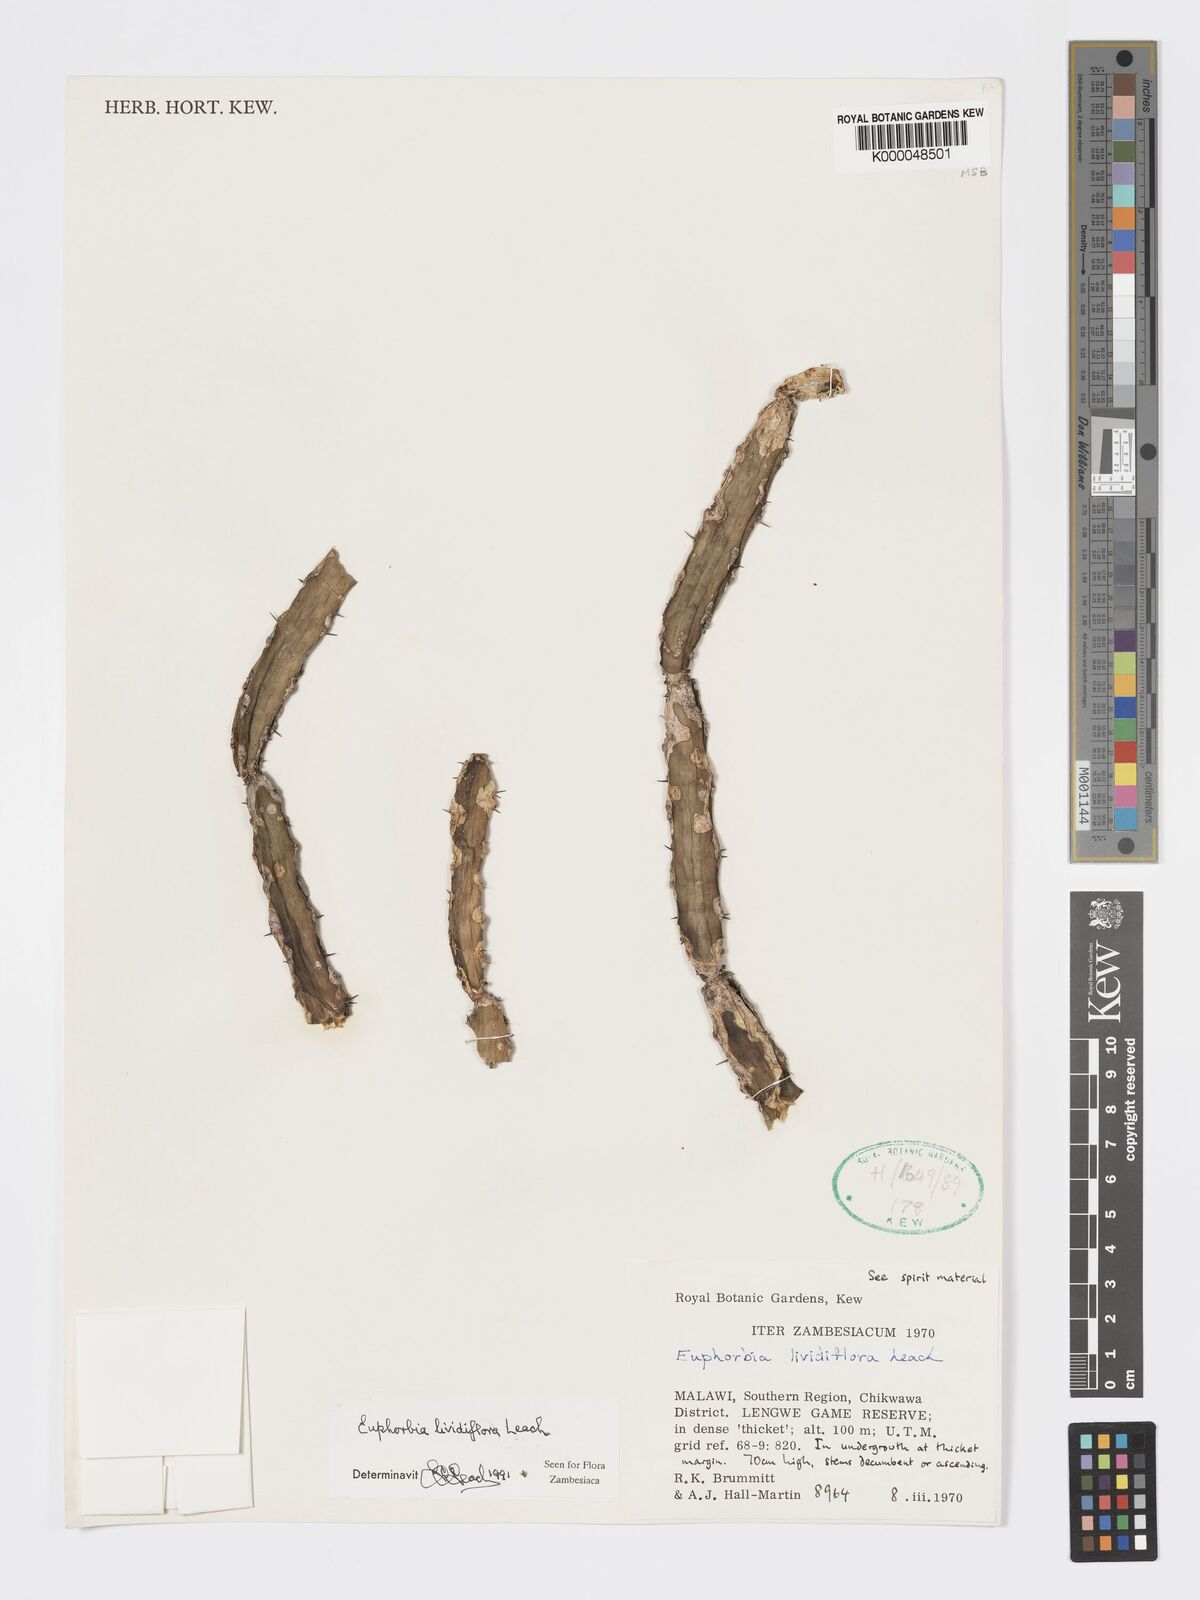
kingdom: Plantae
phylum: Tracheophyta
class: Magnoliopsida
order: Malpighiales
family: Euphorbiaceae
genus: Euphorbia
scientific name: Euphorbia lividiflora
